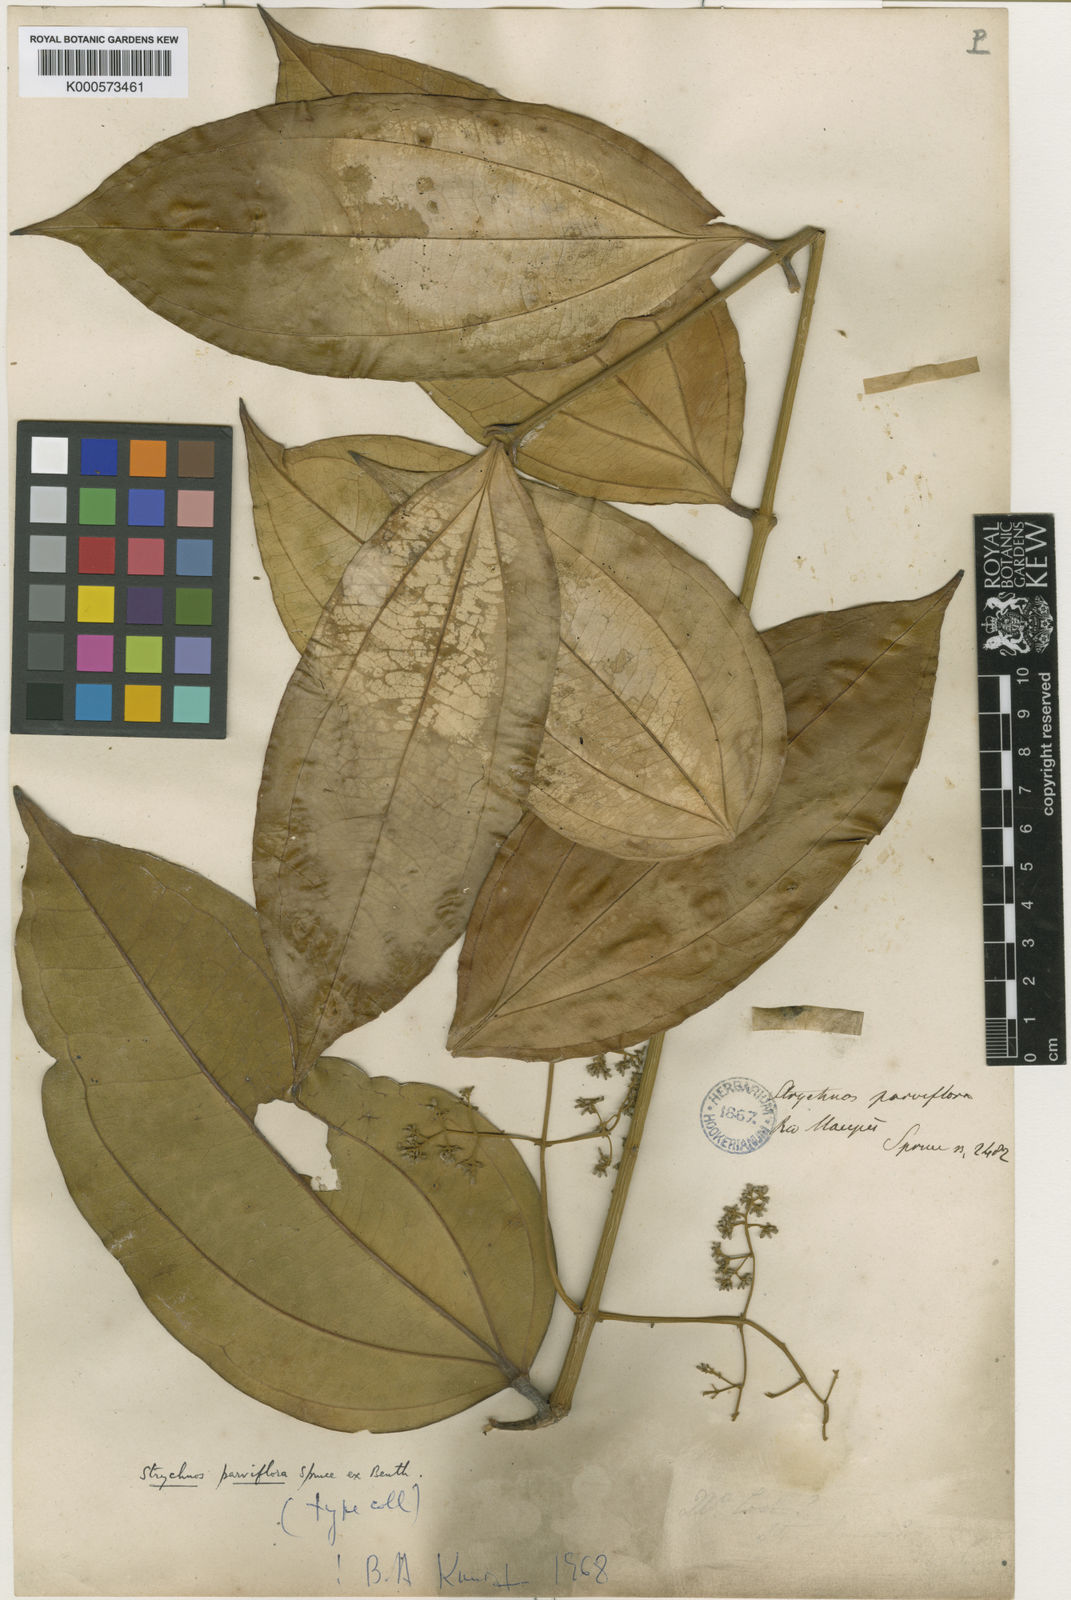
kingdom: Plantae
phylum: Tracheophyta
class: Magnoliopsida
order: Gentianales
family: Loganiaceae
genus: Strychnos
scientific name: Strychnos parviflora
